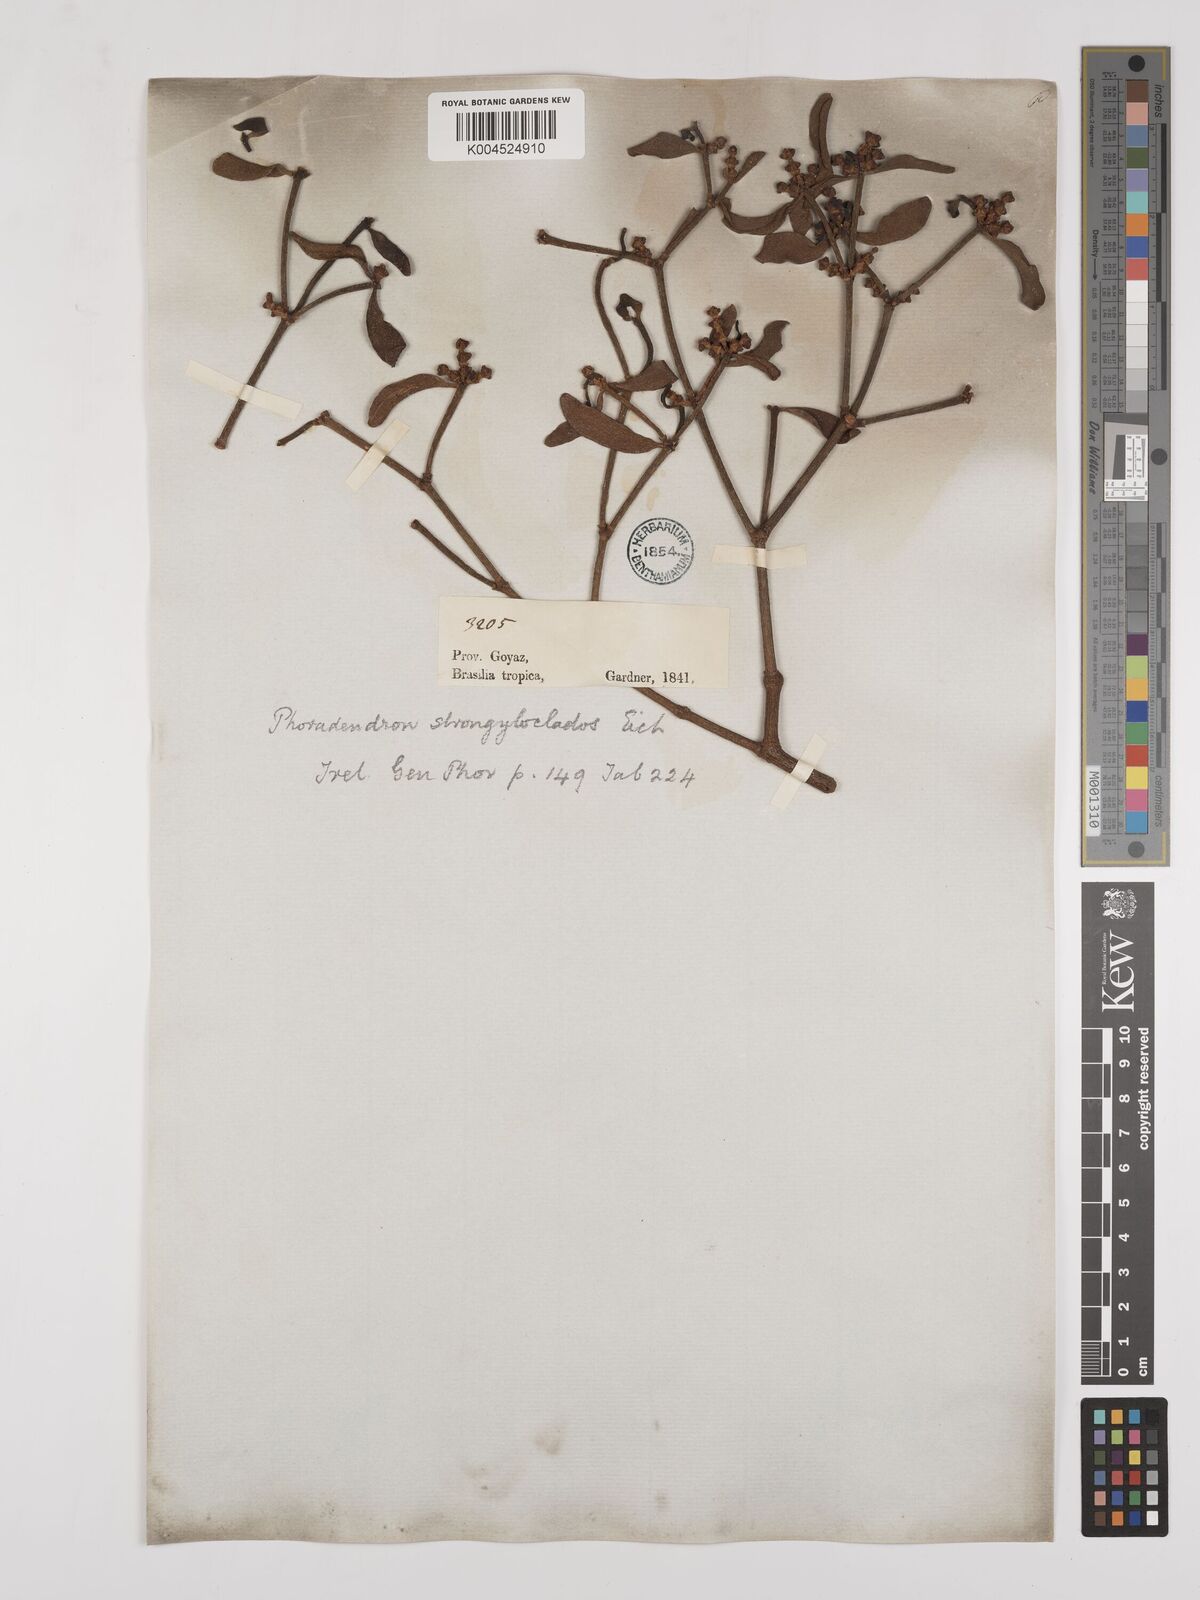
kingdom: Plantae
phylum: Tracheophyta
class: Magnoliopsida
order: Santalales
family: Viscaceae
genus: Phoradendron
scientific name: Phoradendron strongyloclados
